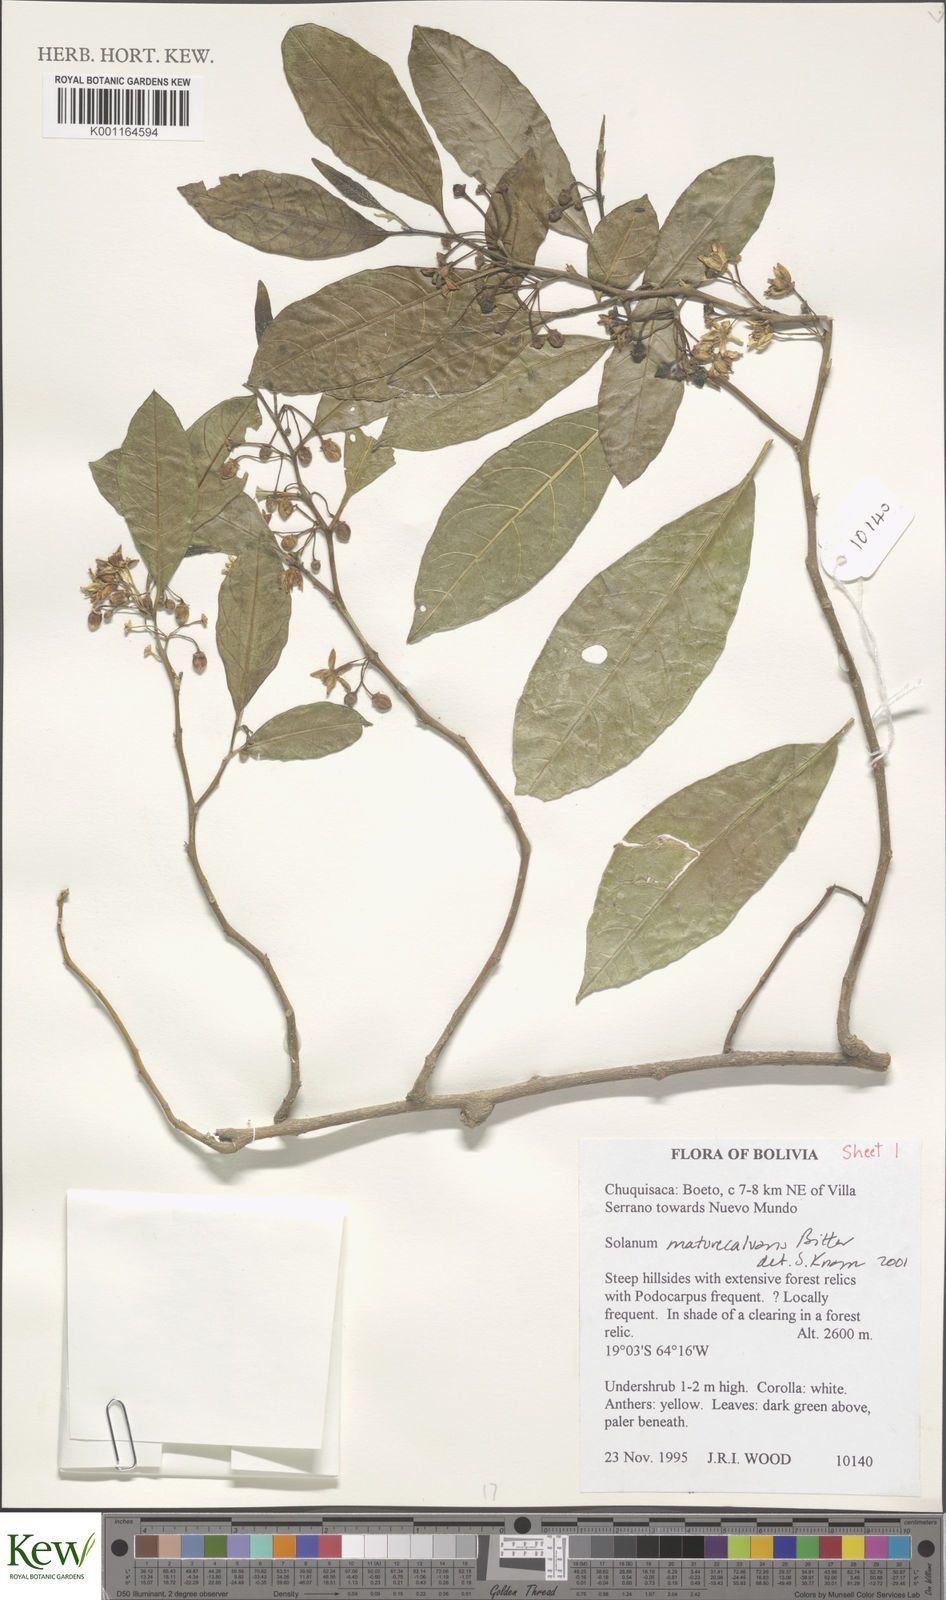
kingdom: Plantae
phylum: Tracheophyta
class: Magnoliopsida
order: Solanales
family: Solanaceae
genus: Solanum
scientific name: Solanum maturecalvans
